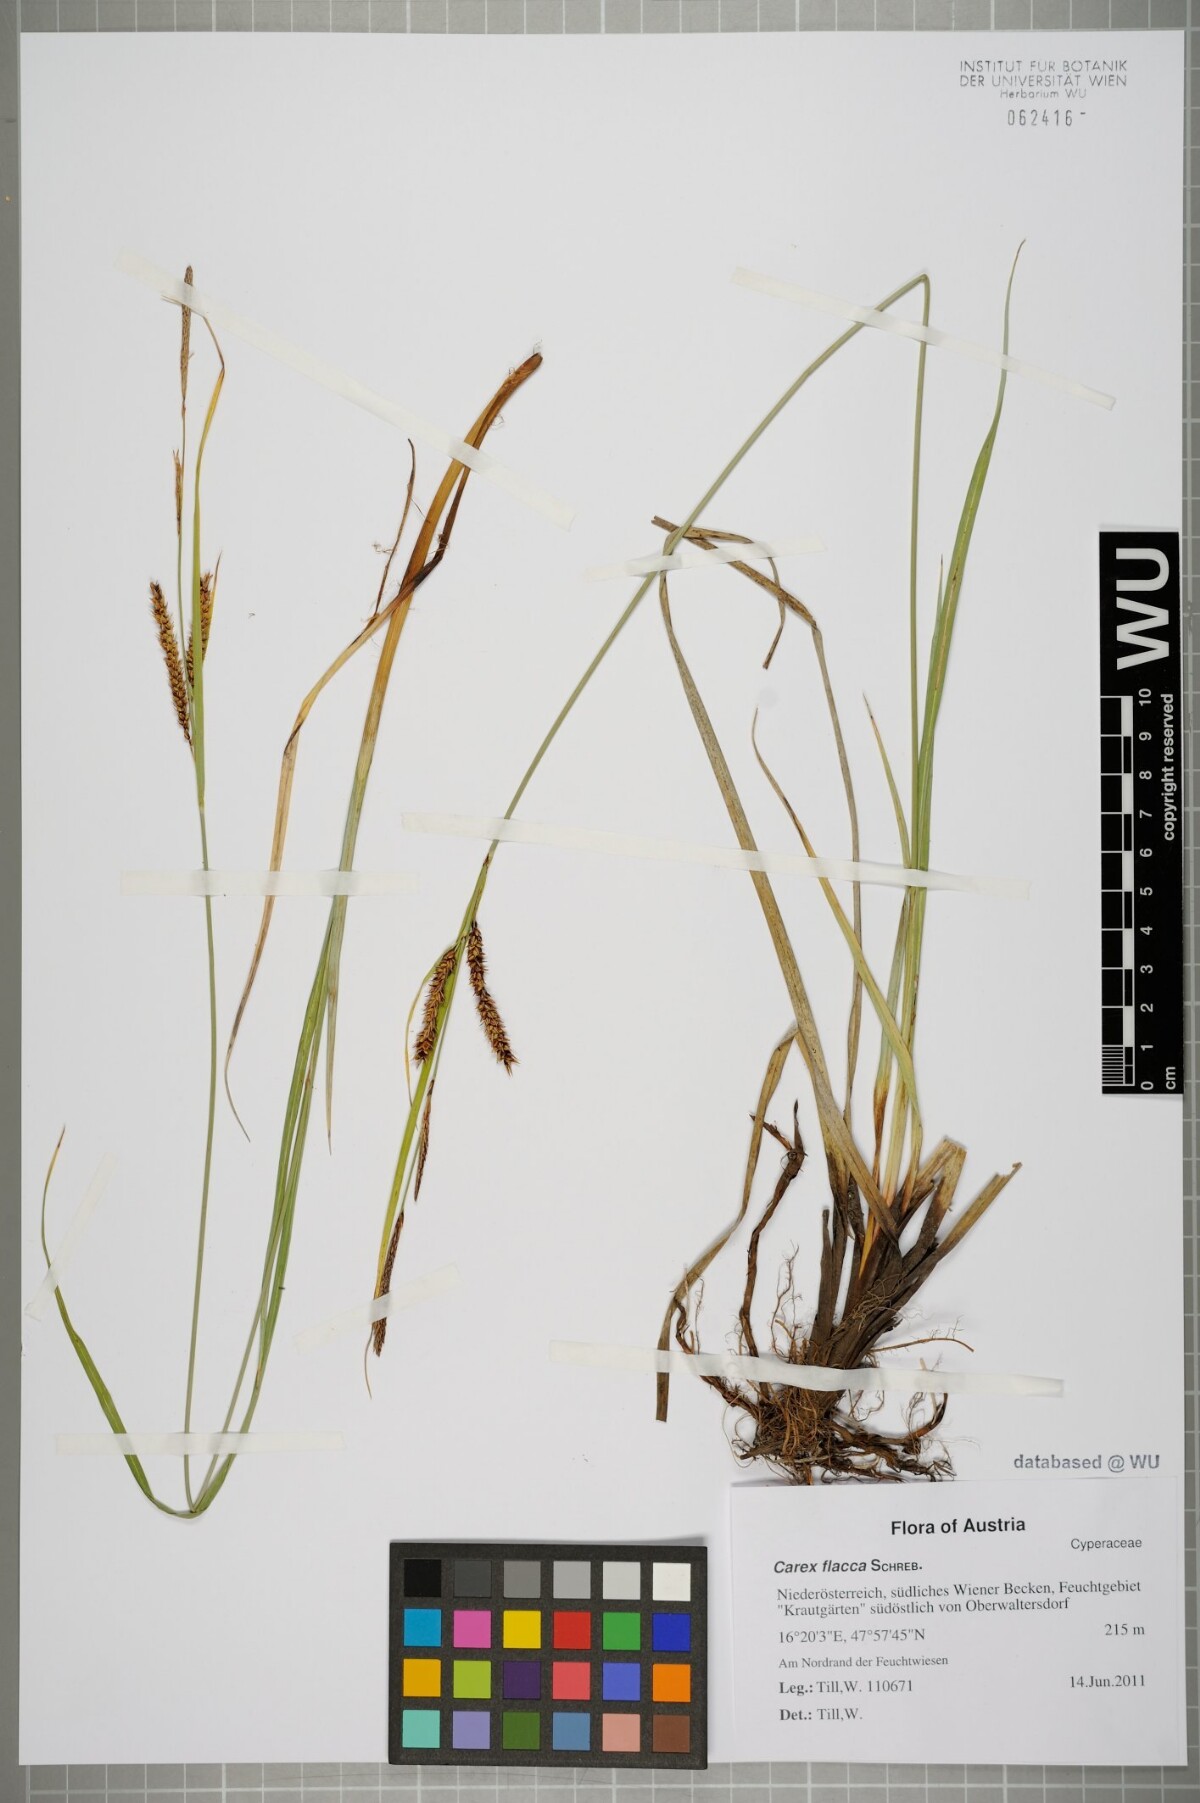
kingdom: Plantae
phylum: Tracheophyta
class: Liliopsida
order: Poales
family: Cyperaceae
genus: Carex
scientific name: Carex flacca
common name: Glaucous sedge
